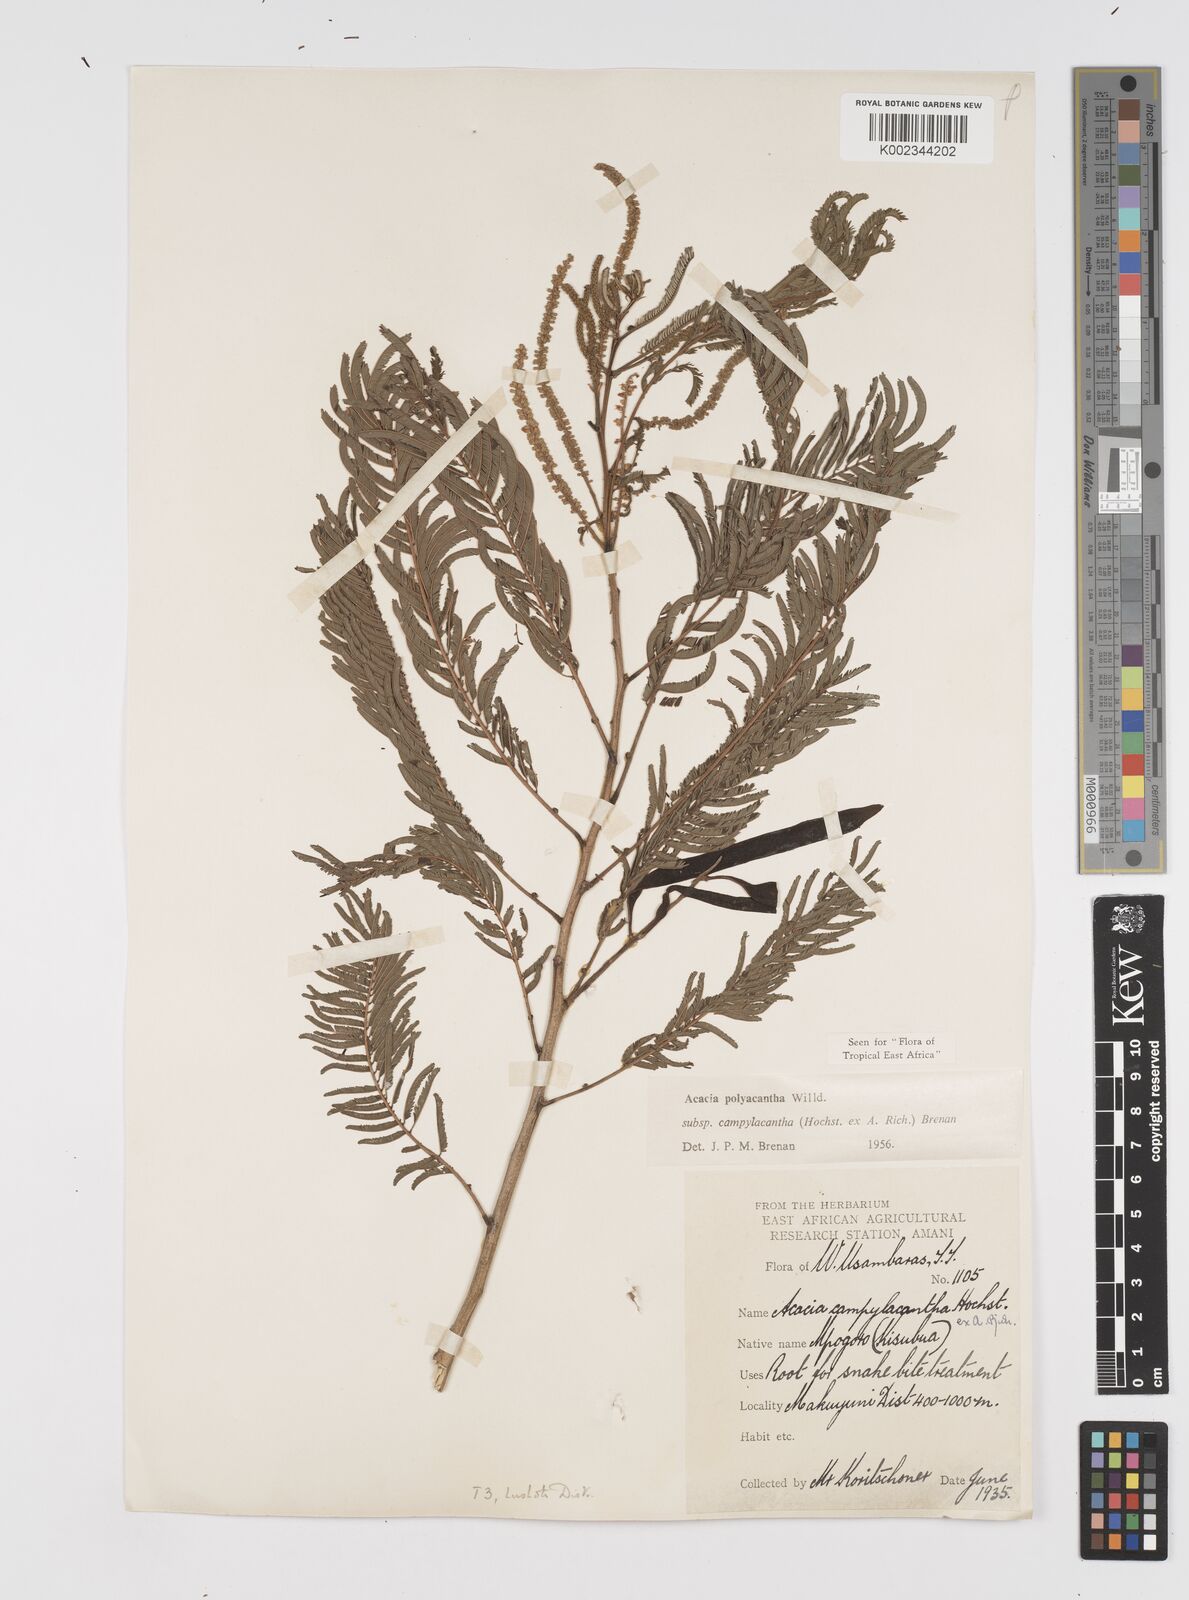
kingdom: Plantae
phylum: Tracheophyta
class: Magnoliopsida
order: Fabales
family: Fabaceae
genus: Senegalia
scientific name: Senegalia polyacantha
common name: Whitethorn
